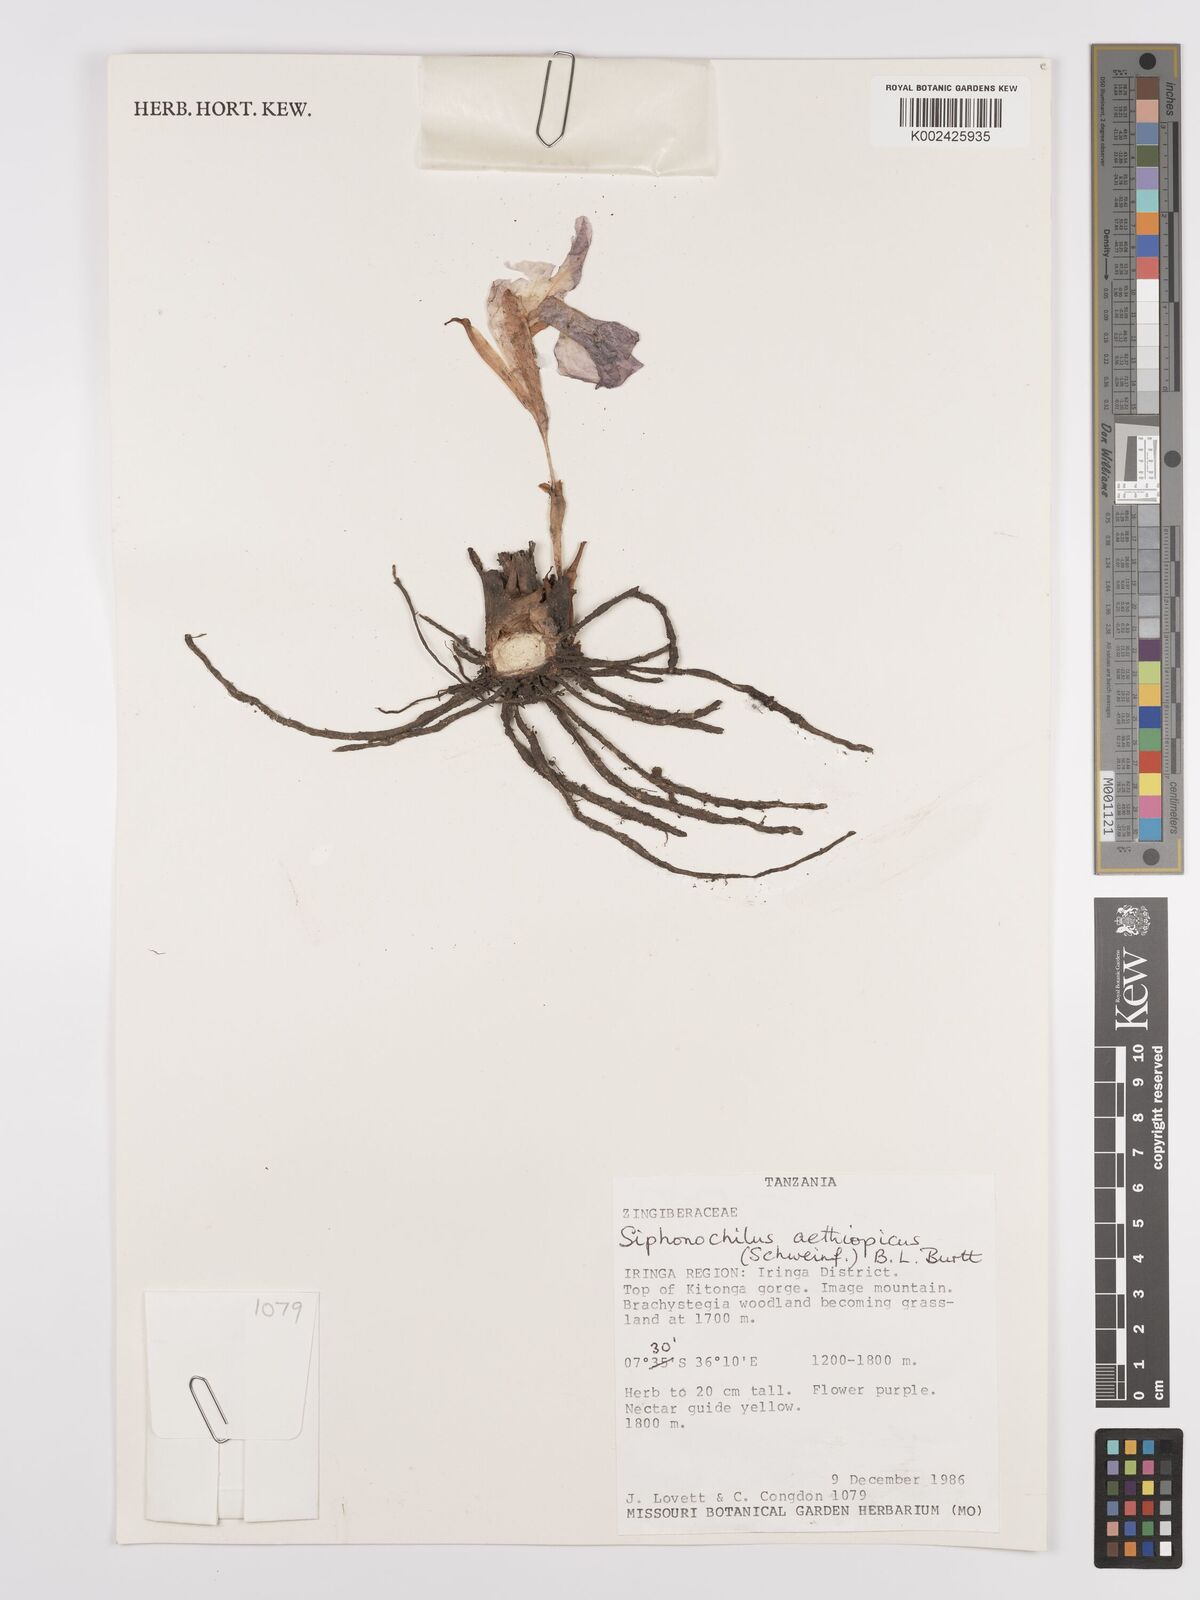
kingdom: Plantae
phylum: Tracheophyta
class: Liliopsida
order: Zingiberales
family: Zingiberaceae
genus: Siphonochilus
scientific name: Siphonochilus aethiopicus
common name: African-ginger
